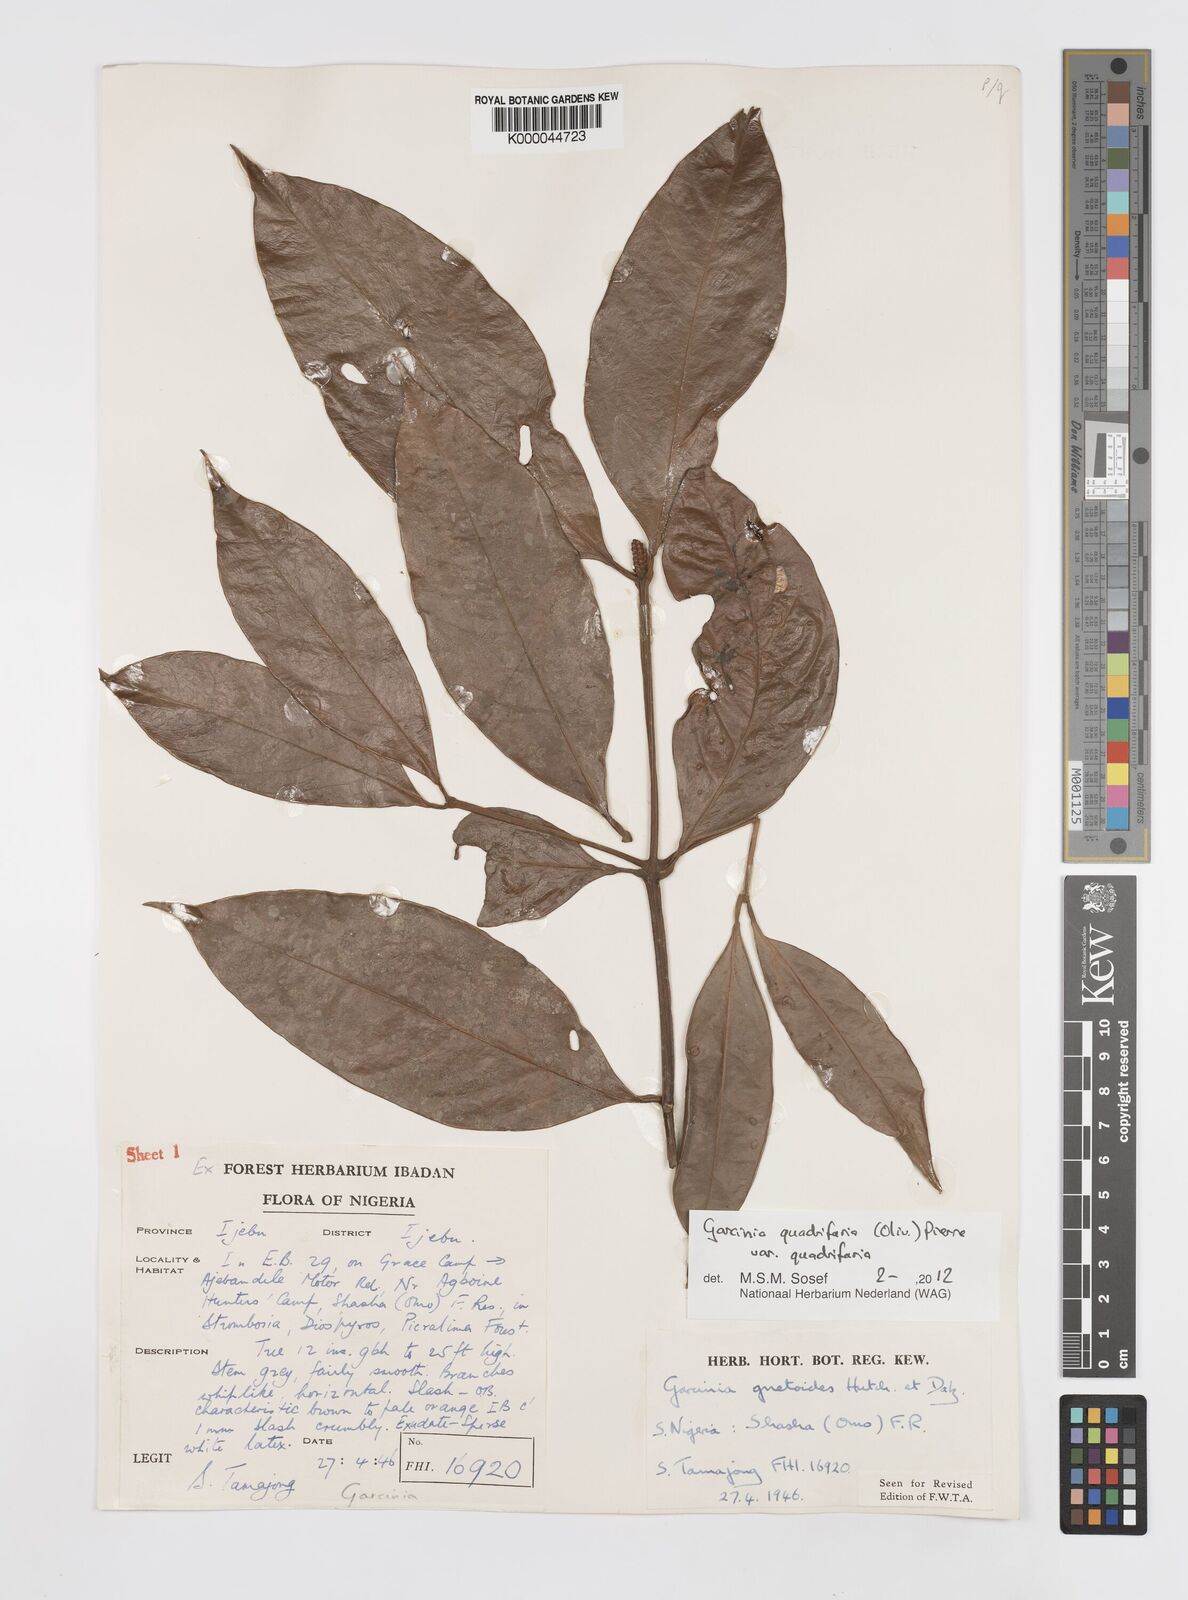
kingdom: Plantae
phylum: Tracheophyta
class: Magnoliopsida
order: Malpighiales
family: Clusiaceae
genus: Garcinia
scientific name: Garcinia gnetoides
